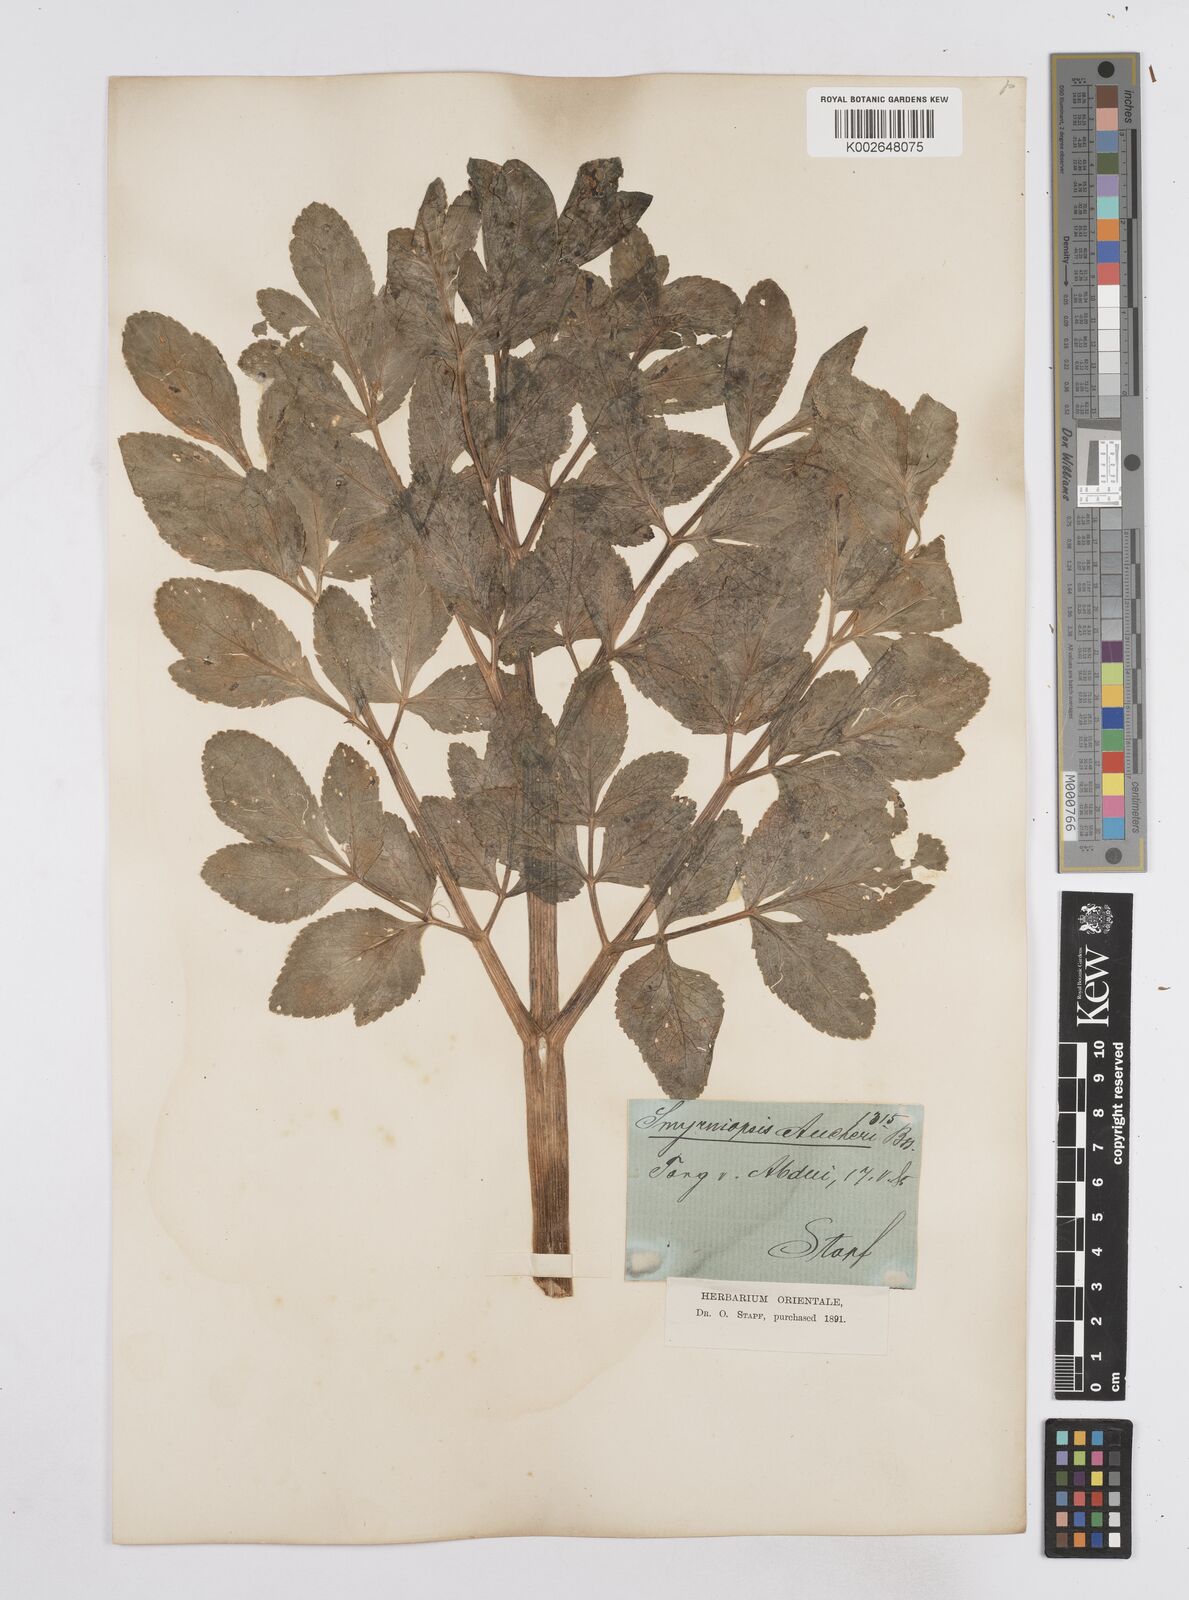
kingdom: Plantae
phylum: Tracheophyta
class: Magnoliopsida
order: Apiales
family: Apiaceae
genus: Smyrniopsis
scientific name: Smyrniopsis aucheri
